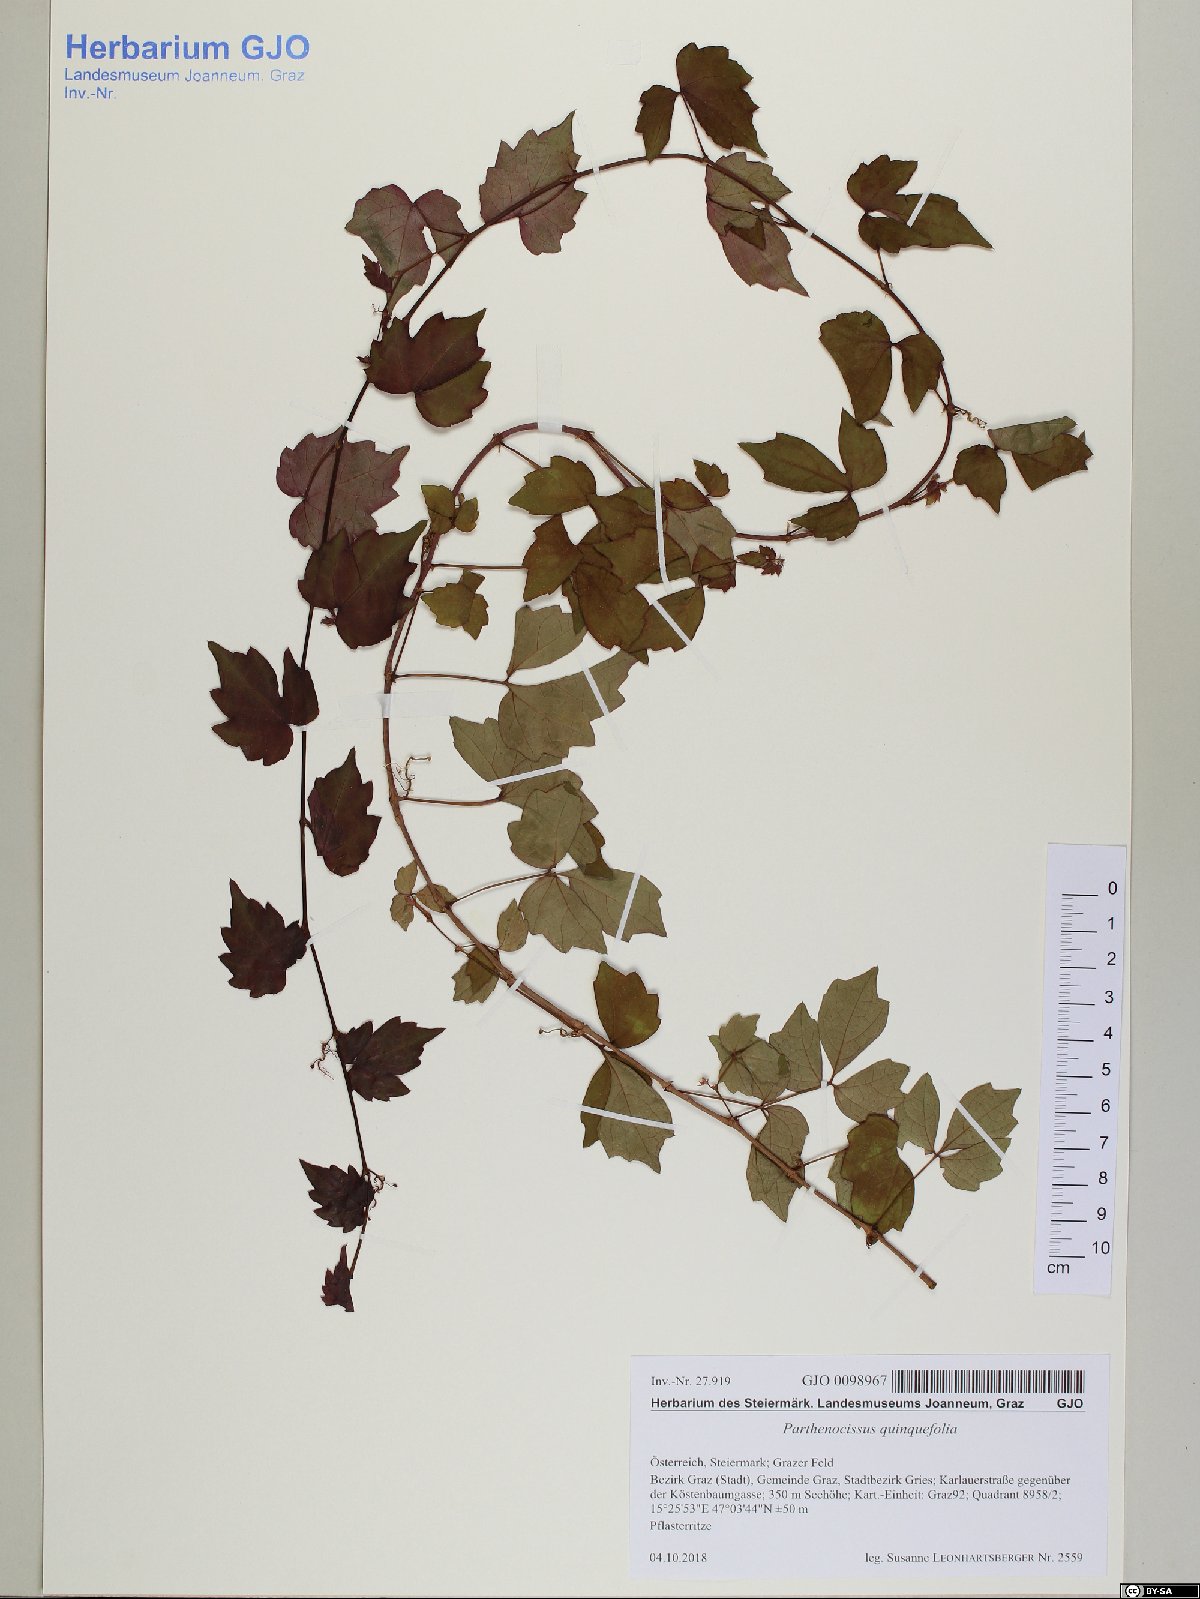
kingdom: Plantae
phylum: Tracheophyta
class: Magnoliopsida
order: Vitales
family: Vitaceae
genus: Parthenocissus
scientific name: Parthenocissus quinquefolia
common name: Virginia-creeper
